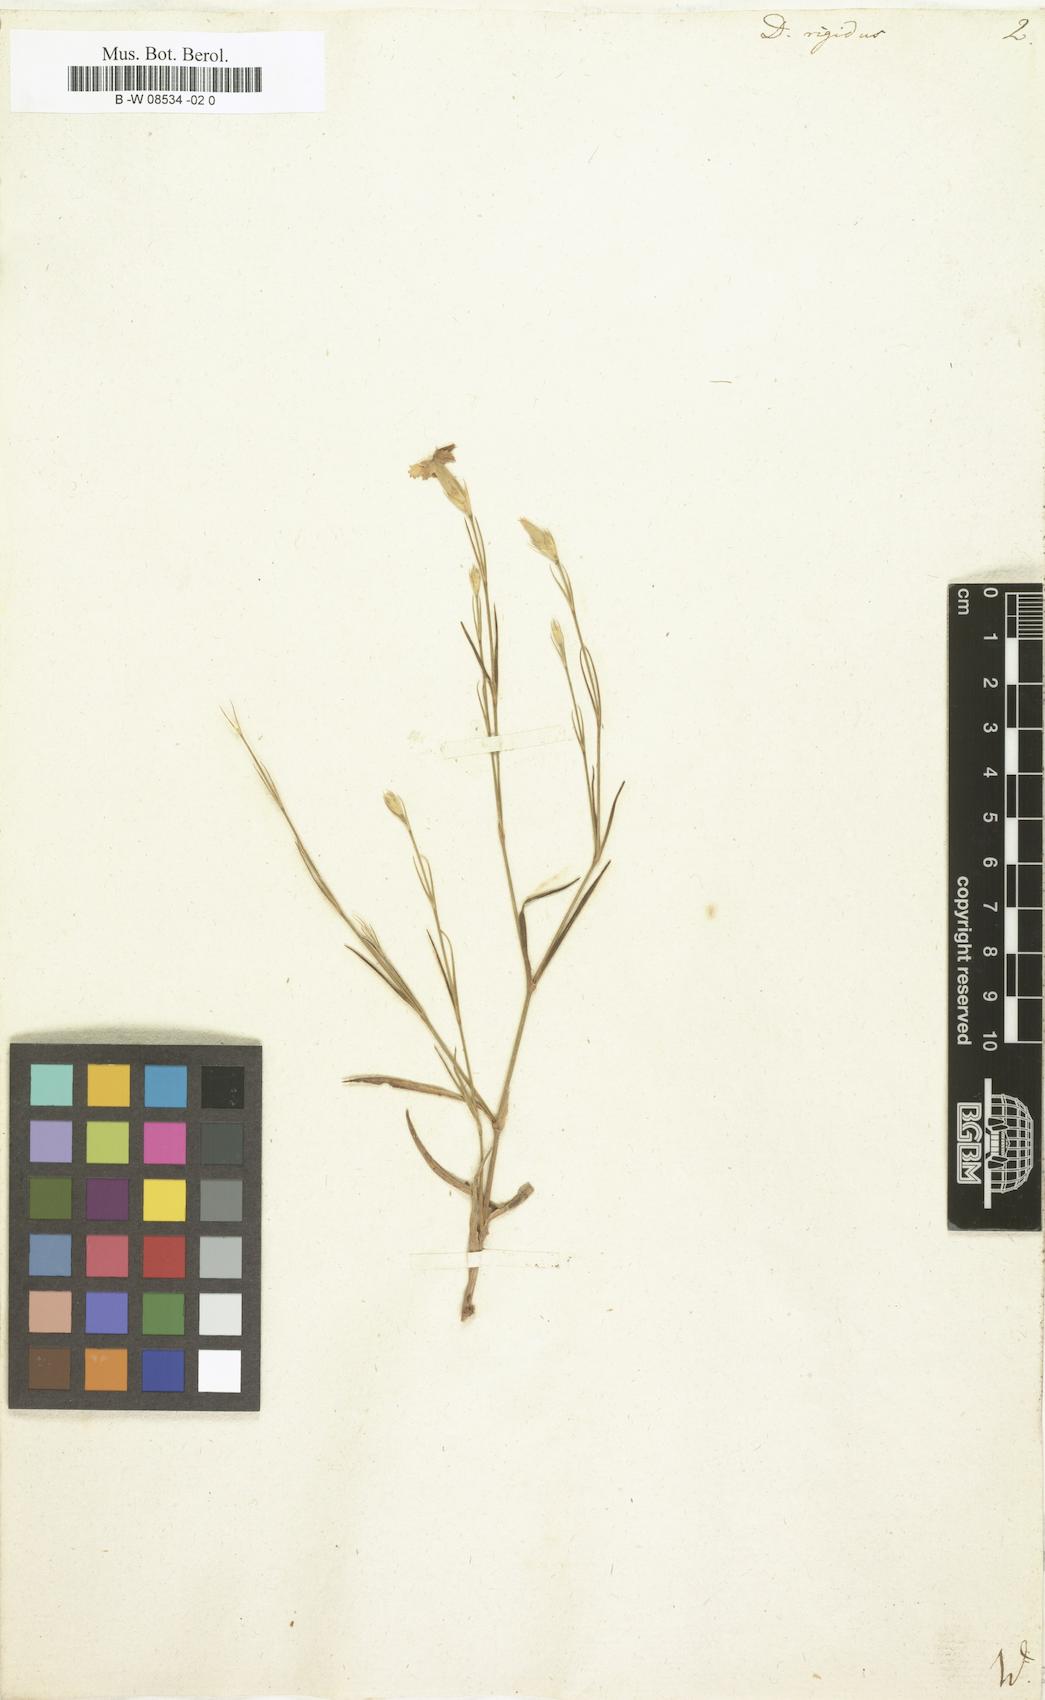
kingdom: Plantae
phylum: Tracheophyta
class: Magnoliopsida
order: Caryophyllales
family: Caryophyllaceae
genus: Dianthus
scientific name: Dianthus rigidus
